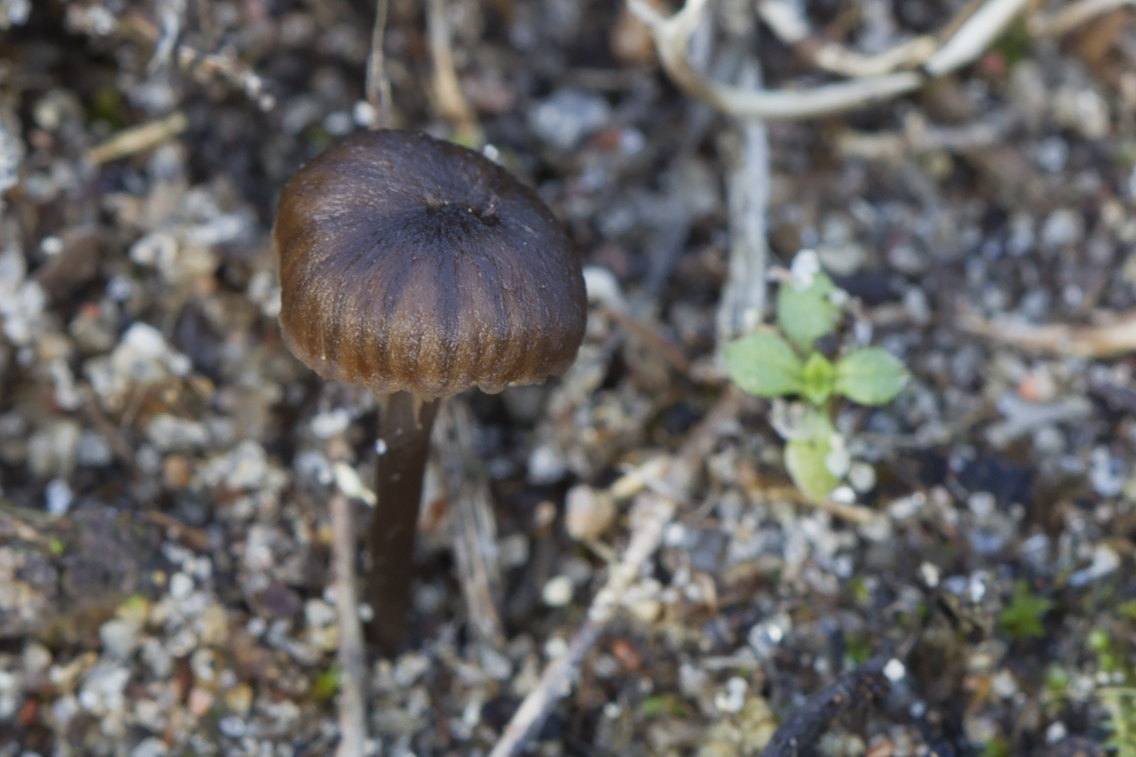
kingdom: Fungi
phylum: Basidiomycota
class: Agaricomycetes
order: Agaricales
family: Entolomataceae
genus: Entoloma
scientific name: Entoloma graphitipes
